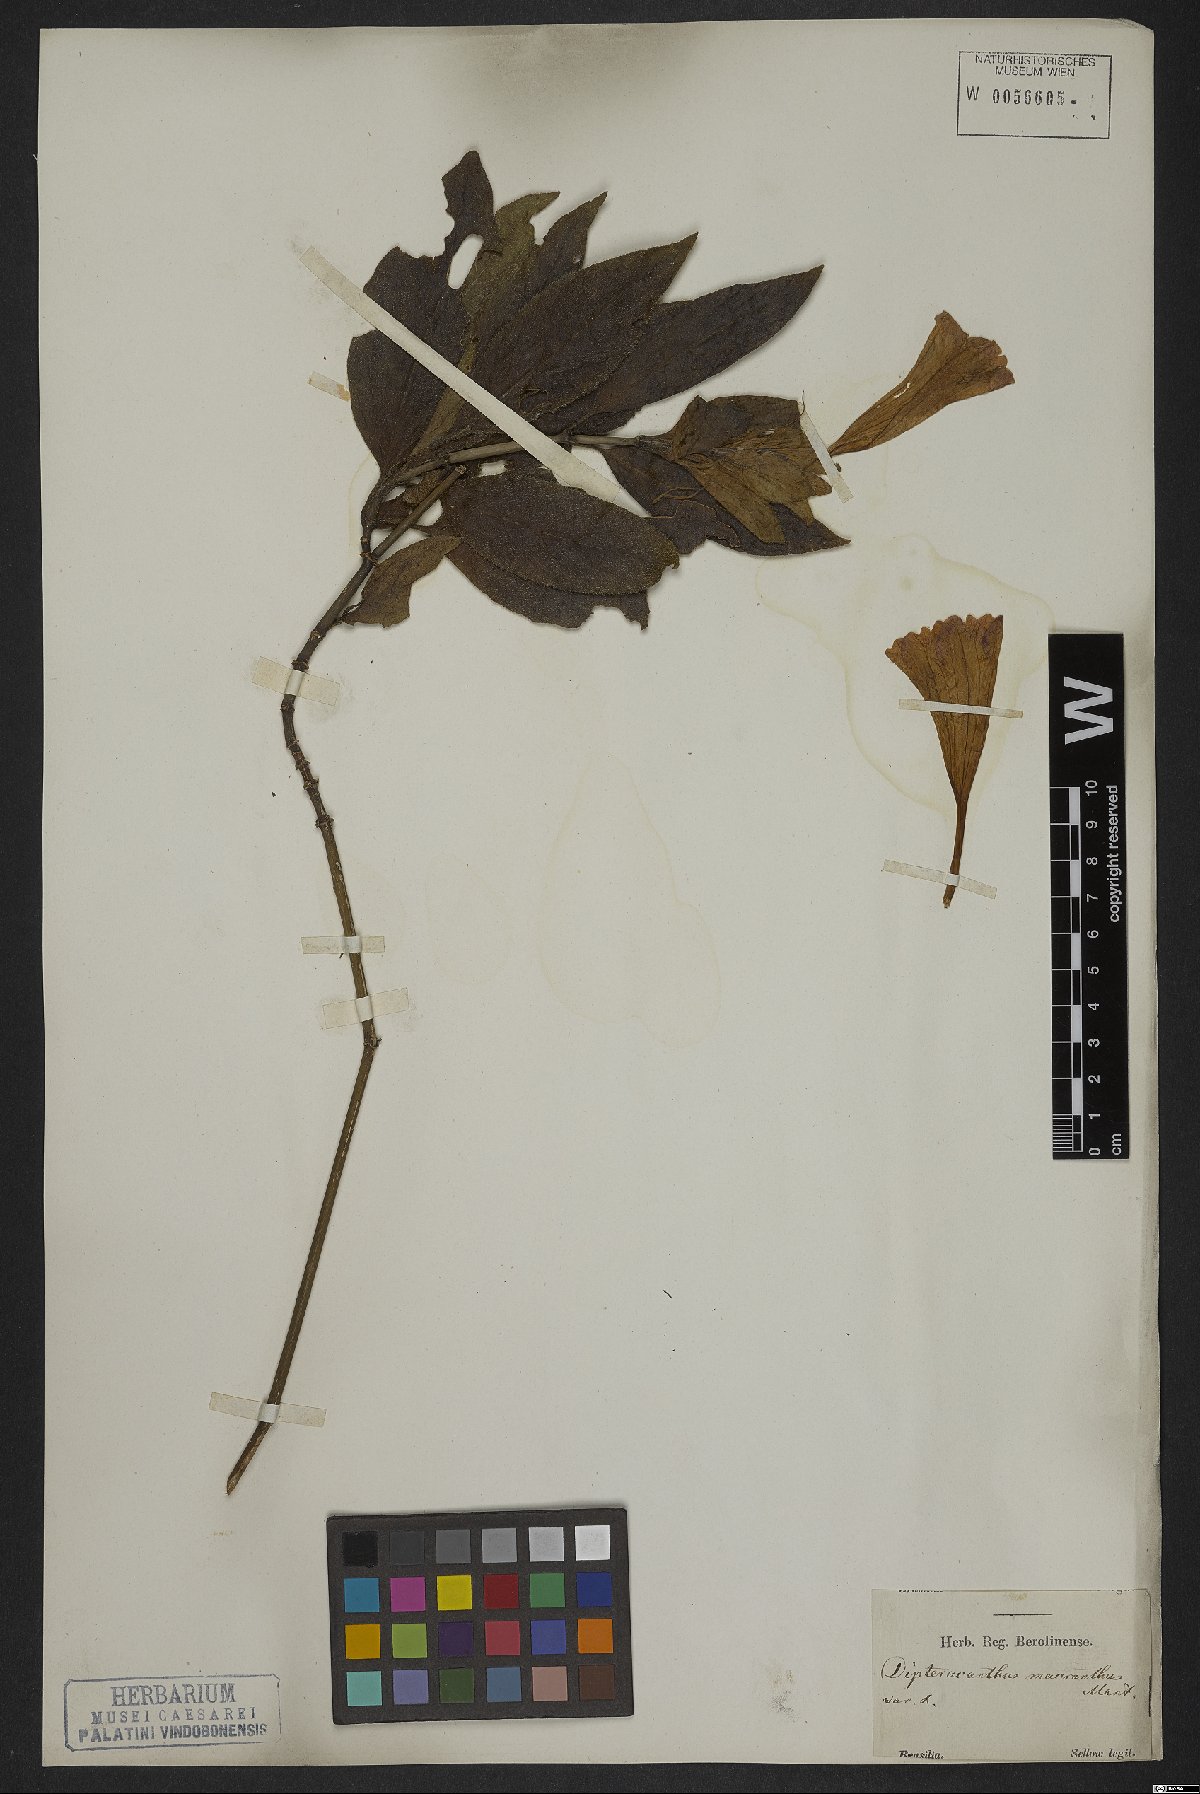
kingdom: Plantae
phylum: Tracheophyta
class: Magnoliopsida
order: Lamiales
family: Acanthaceae
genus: Ruellia
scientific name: Ruellia macrantha
